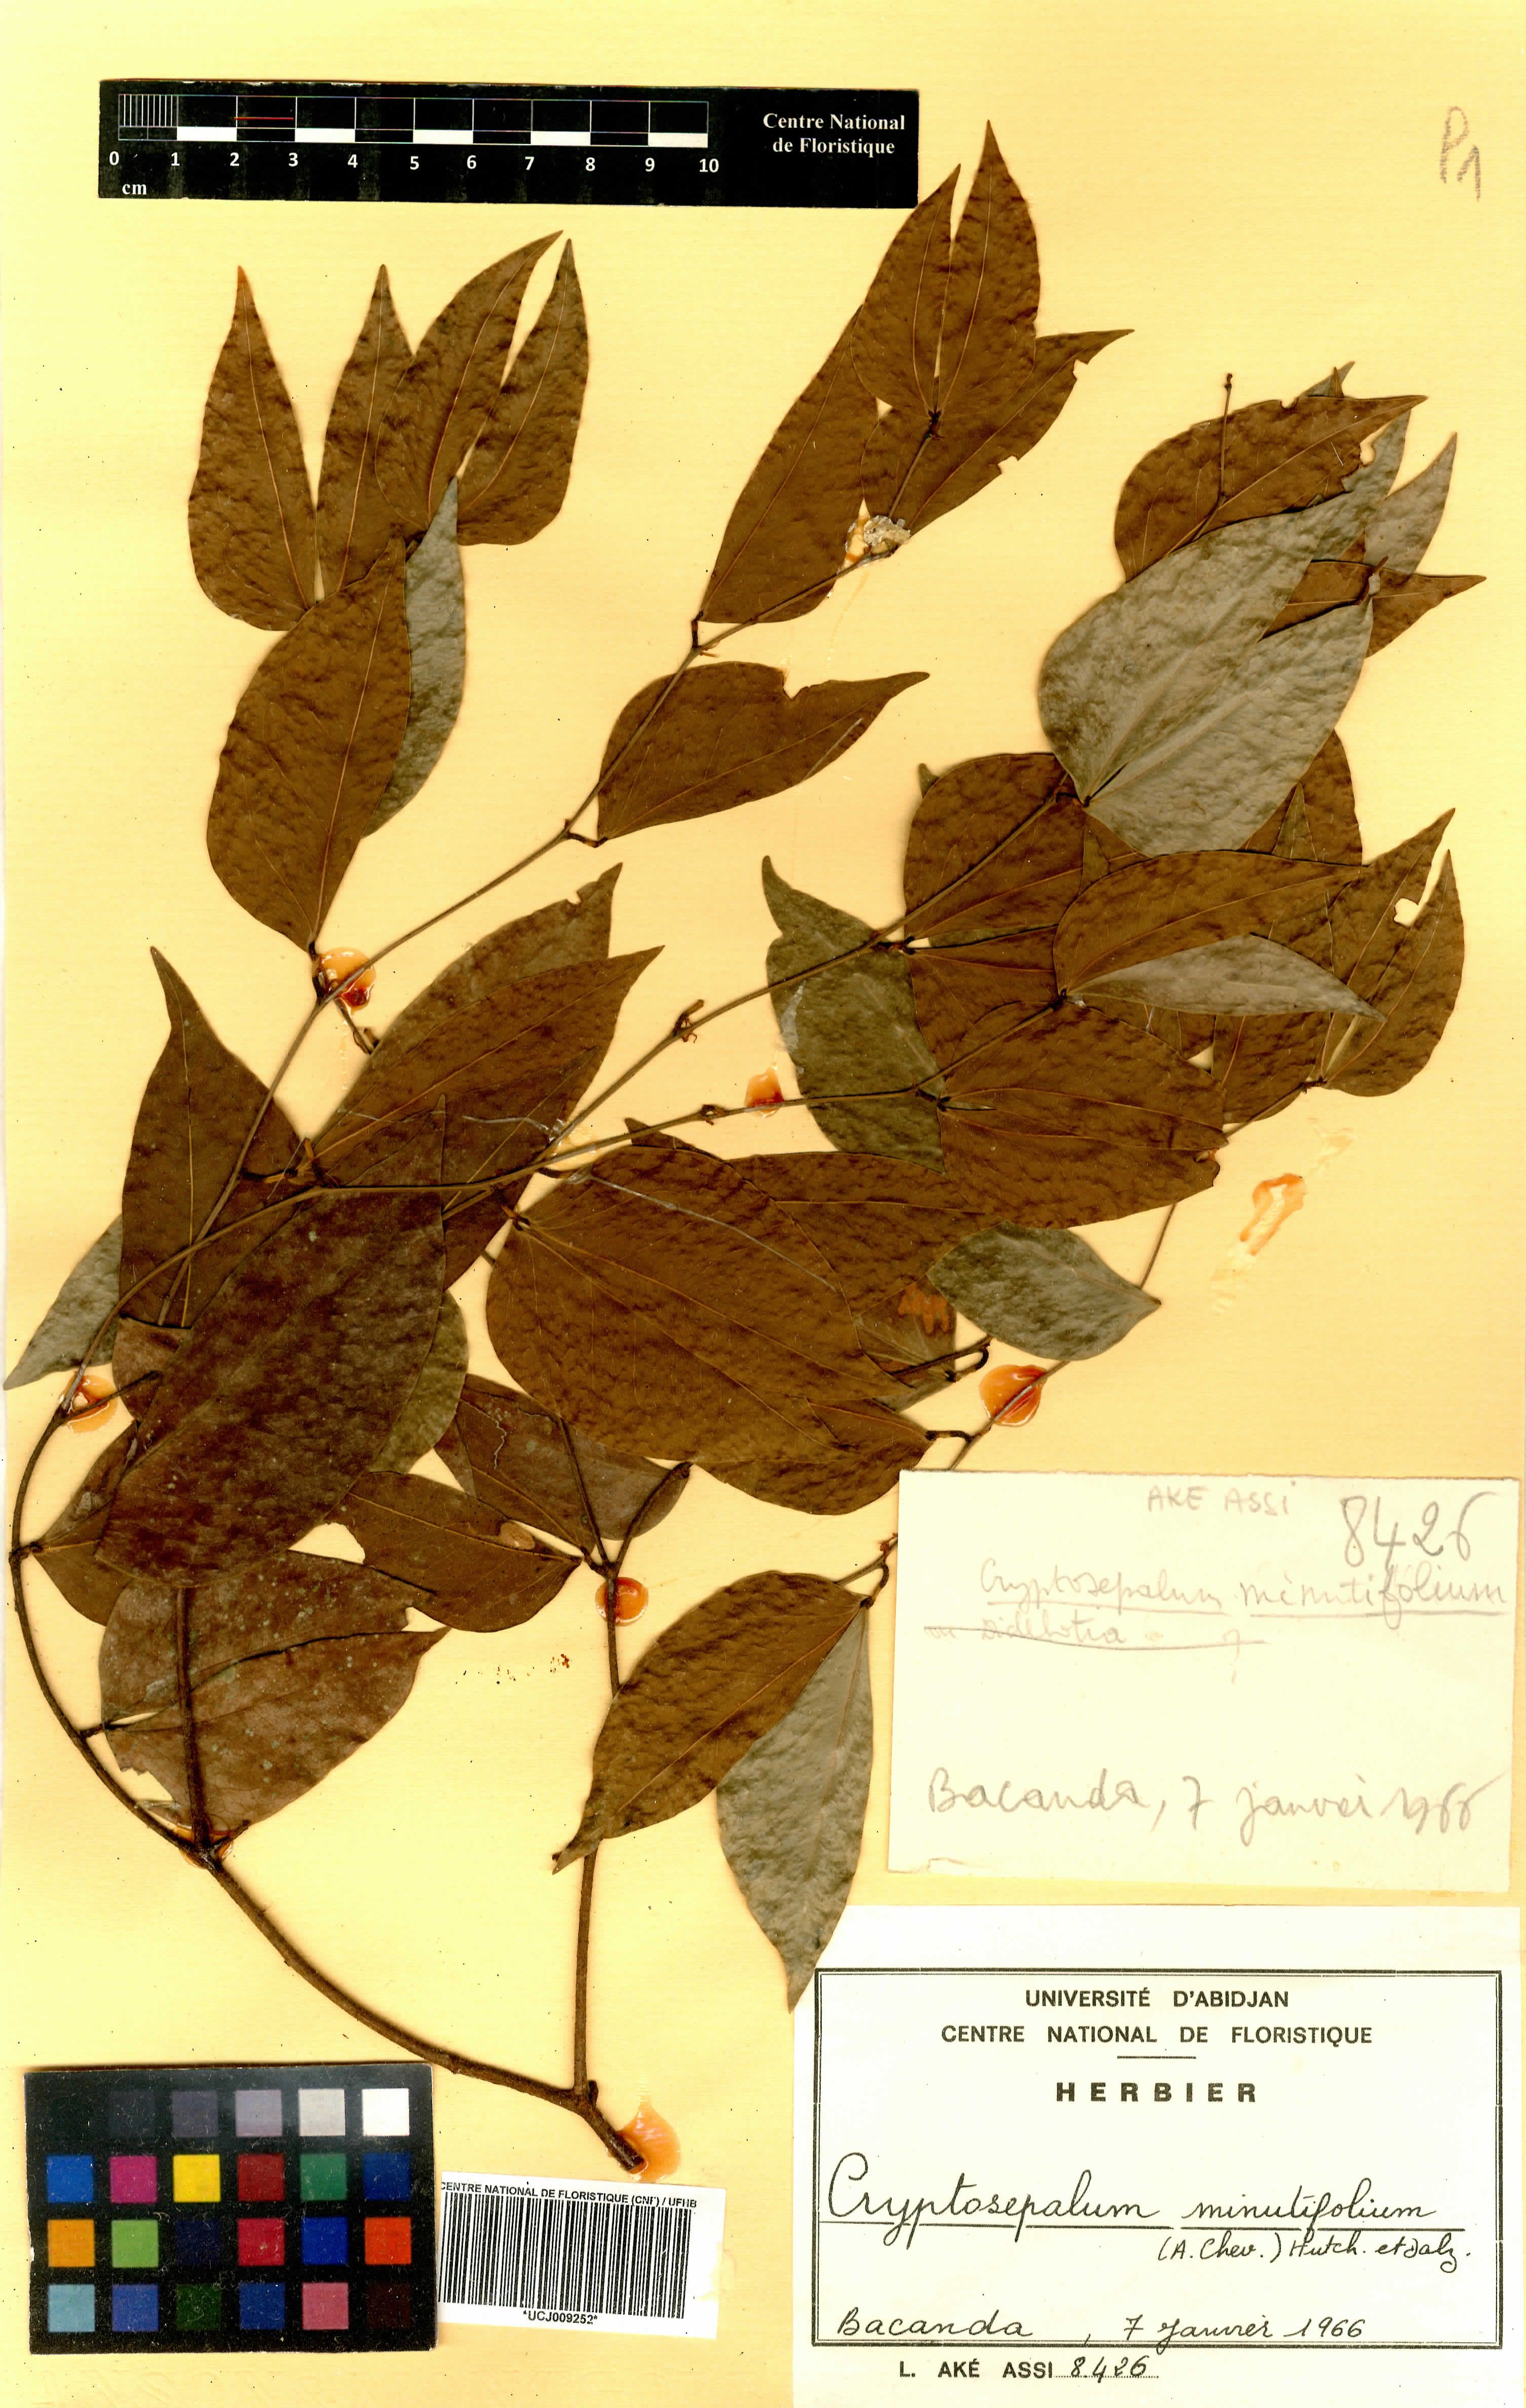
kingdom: Plantae
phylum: Tracheophyta
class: Magnoliopsida
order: Fabales
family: Fabaceae
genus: Cryptosepalum
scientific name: Cryptosepalum minutifolium
